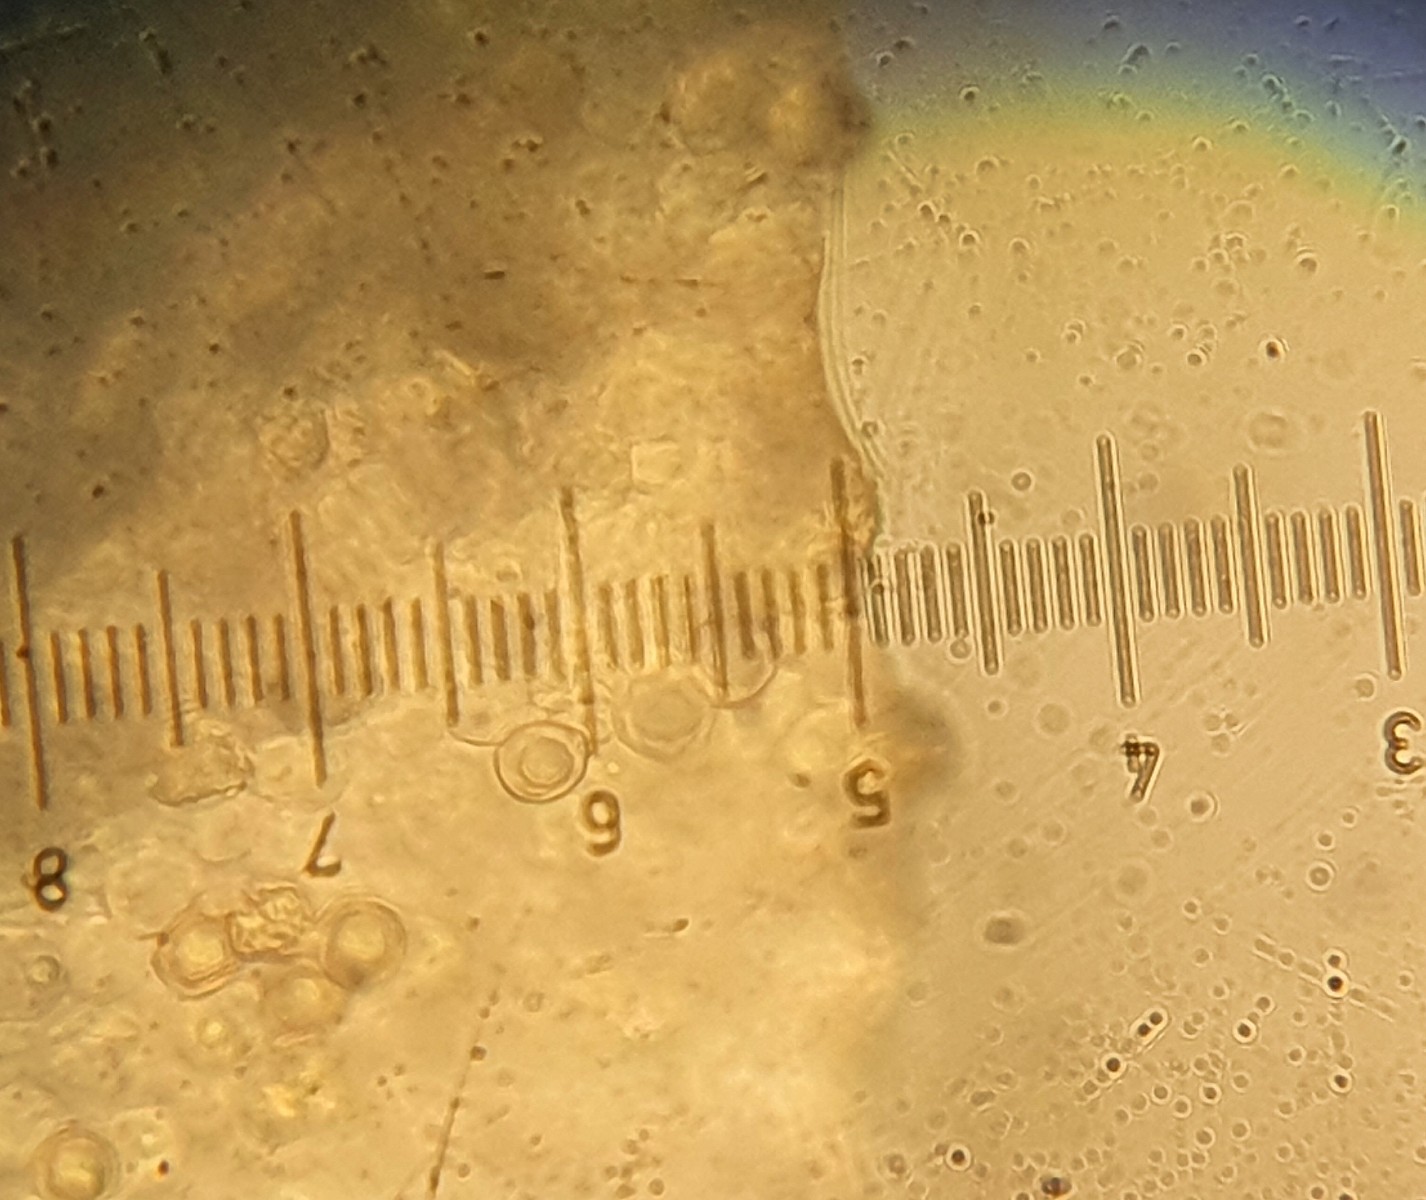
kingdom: Fungi
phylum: Basidiomycota
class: Agaricomycetes
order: Agaricales
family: Entolomataceae
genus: Entoloma
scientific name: Entoloma
